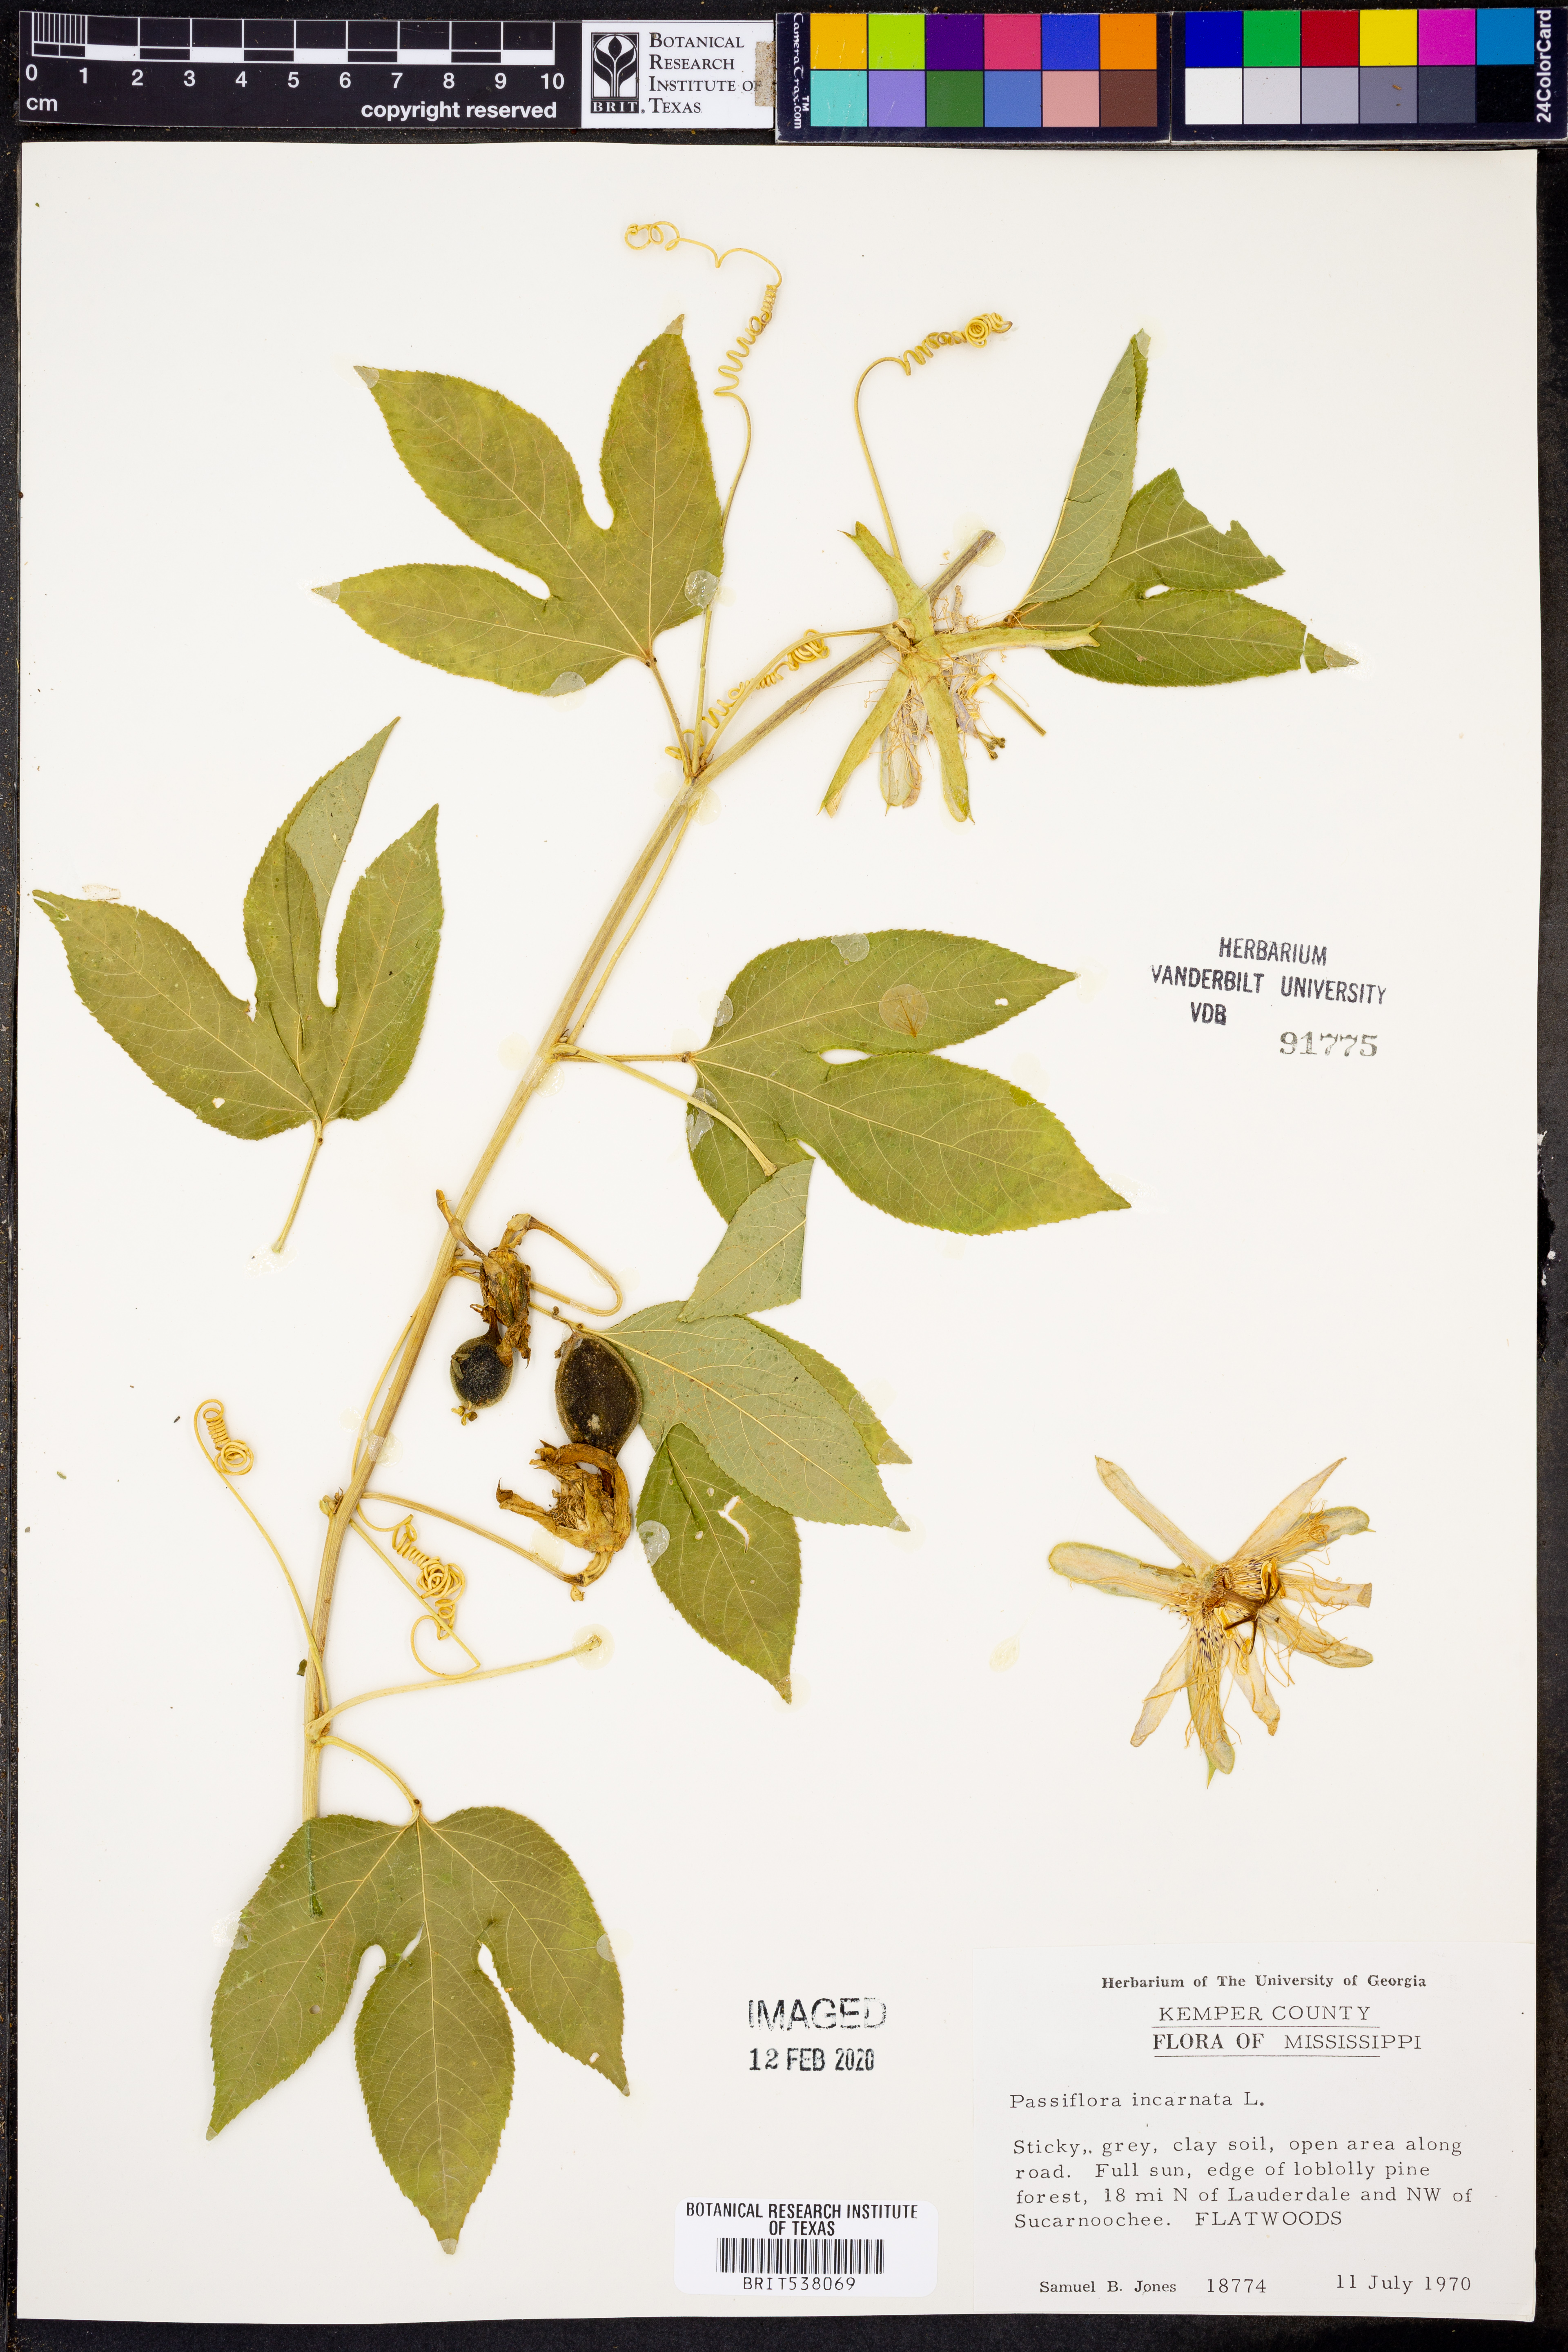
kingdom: Plantae
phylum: Tracheophyta
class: Magnoliopsida
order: Malpighiales
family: Passifloraceae
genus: Passiflora
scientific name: Passiflora incarnata
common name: Apricot-vine
